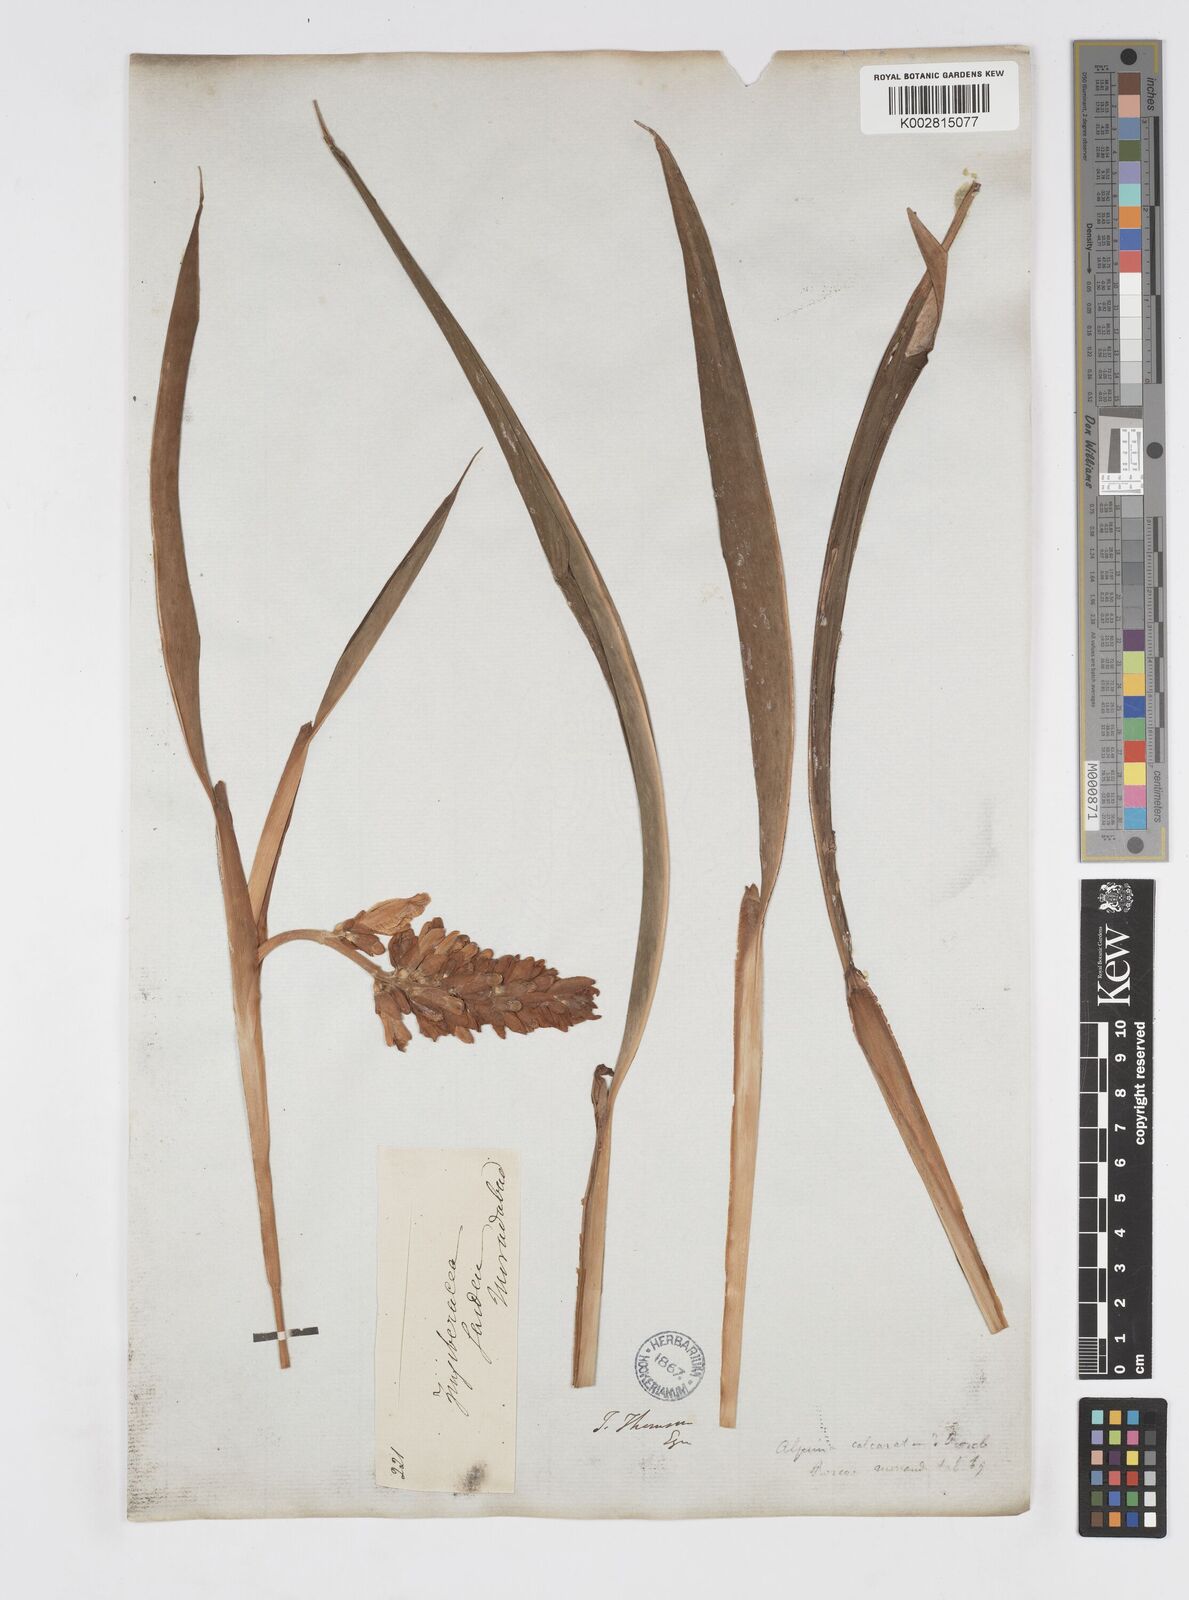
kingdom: Plantae
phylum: Tracheophyta
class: Liliopsida
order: Zingiberales
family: Zingiberaceae
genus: Alpinia
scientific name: Alpinia calcarata
